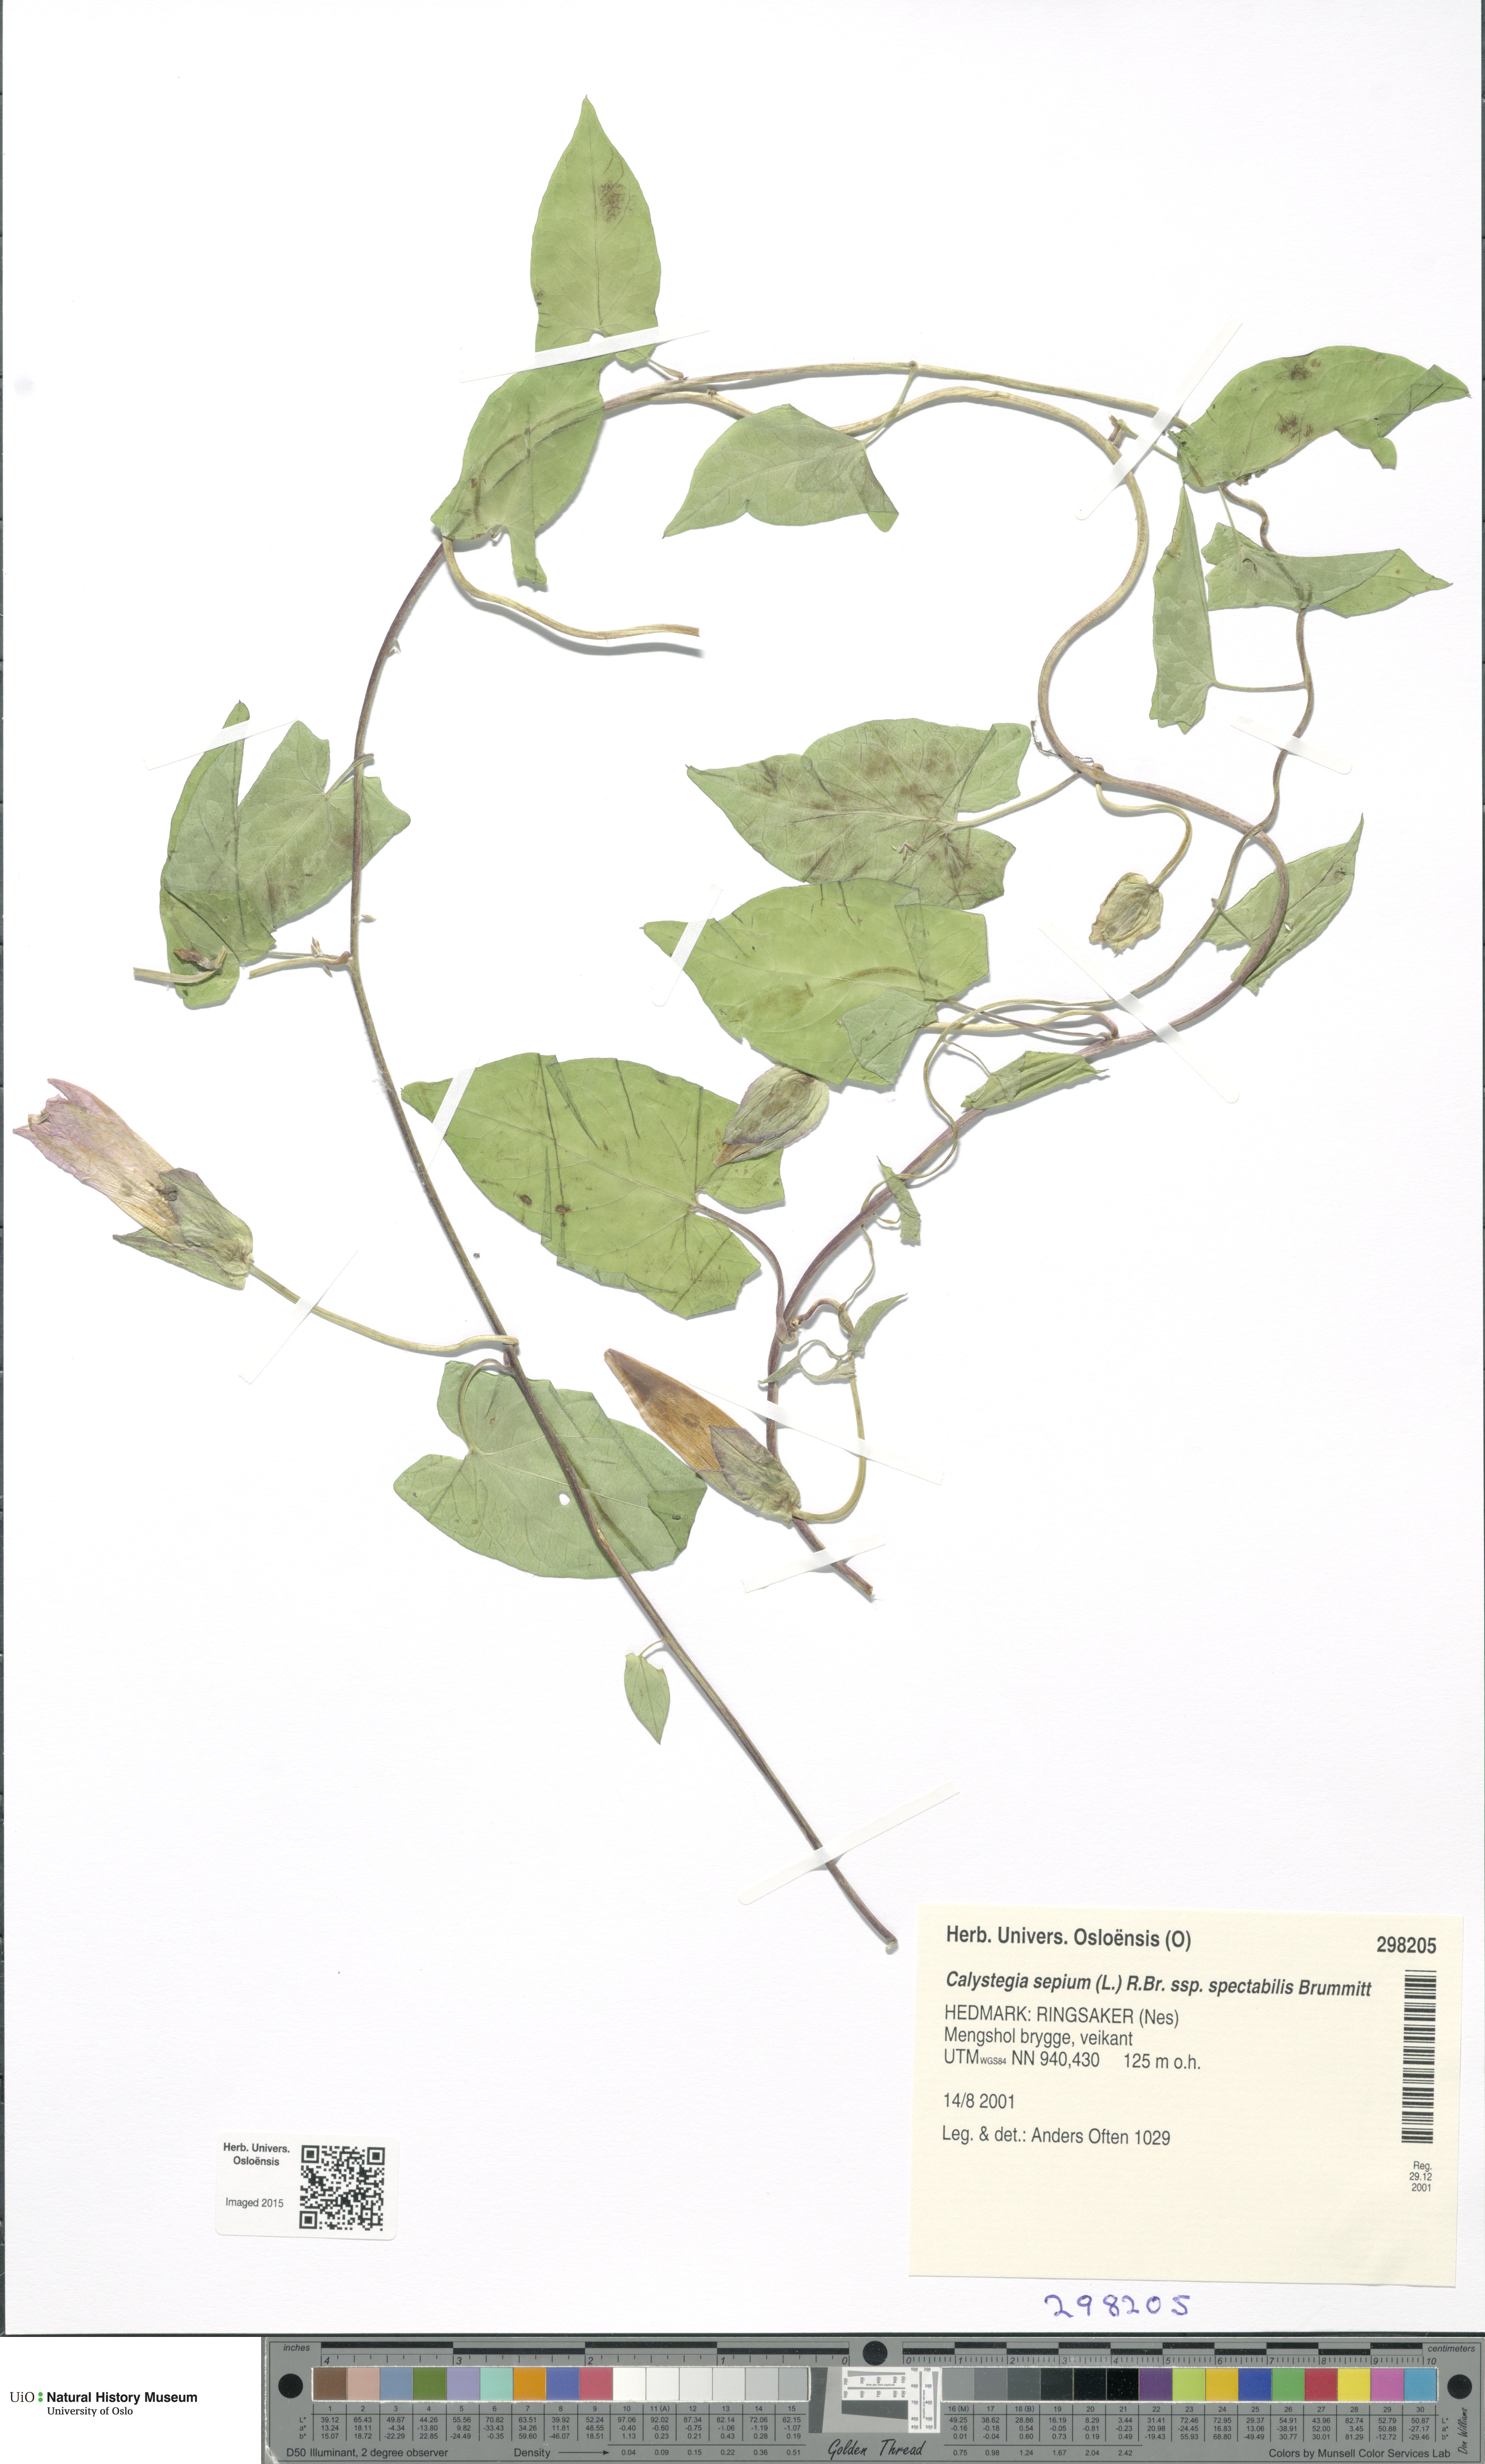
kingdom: Plantae
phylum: Tracheophyta
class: Magnoliopsida
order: Solanales
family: Convolvulaceae
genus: Calystegia
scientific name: Calystegia sepium
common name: Hedge bindweed
